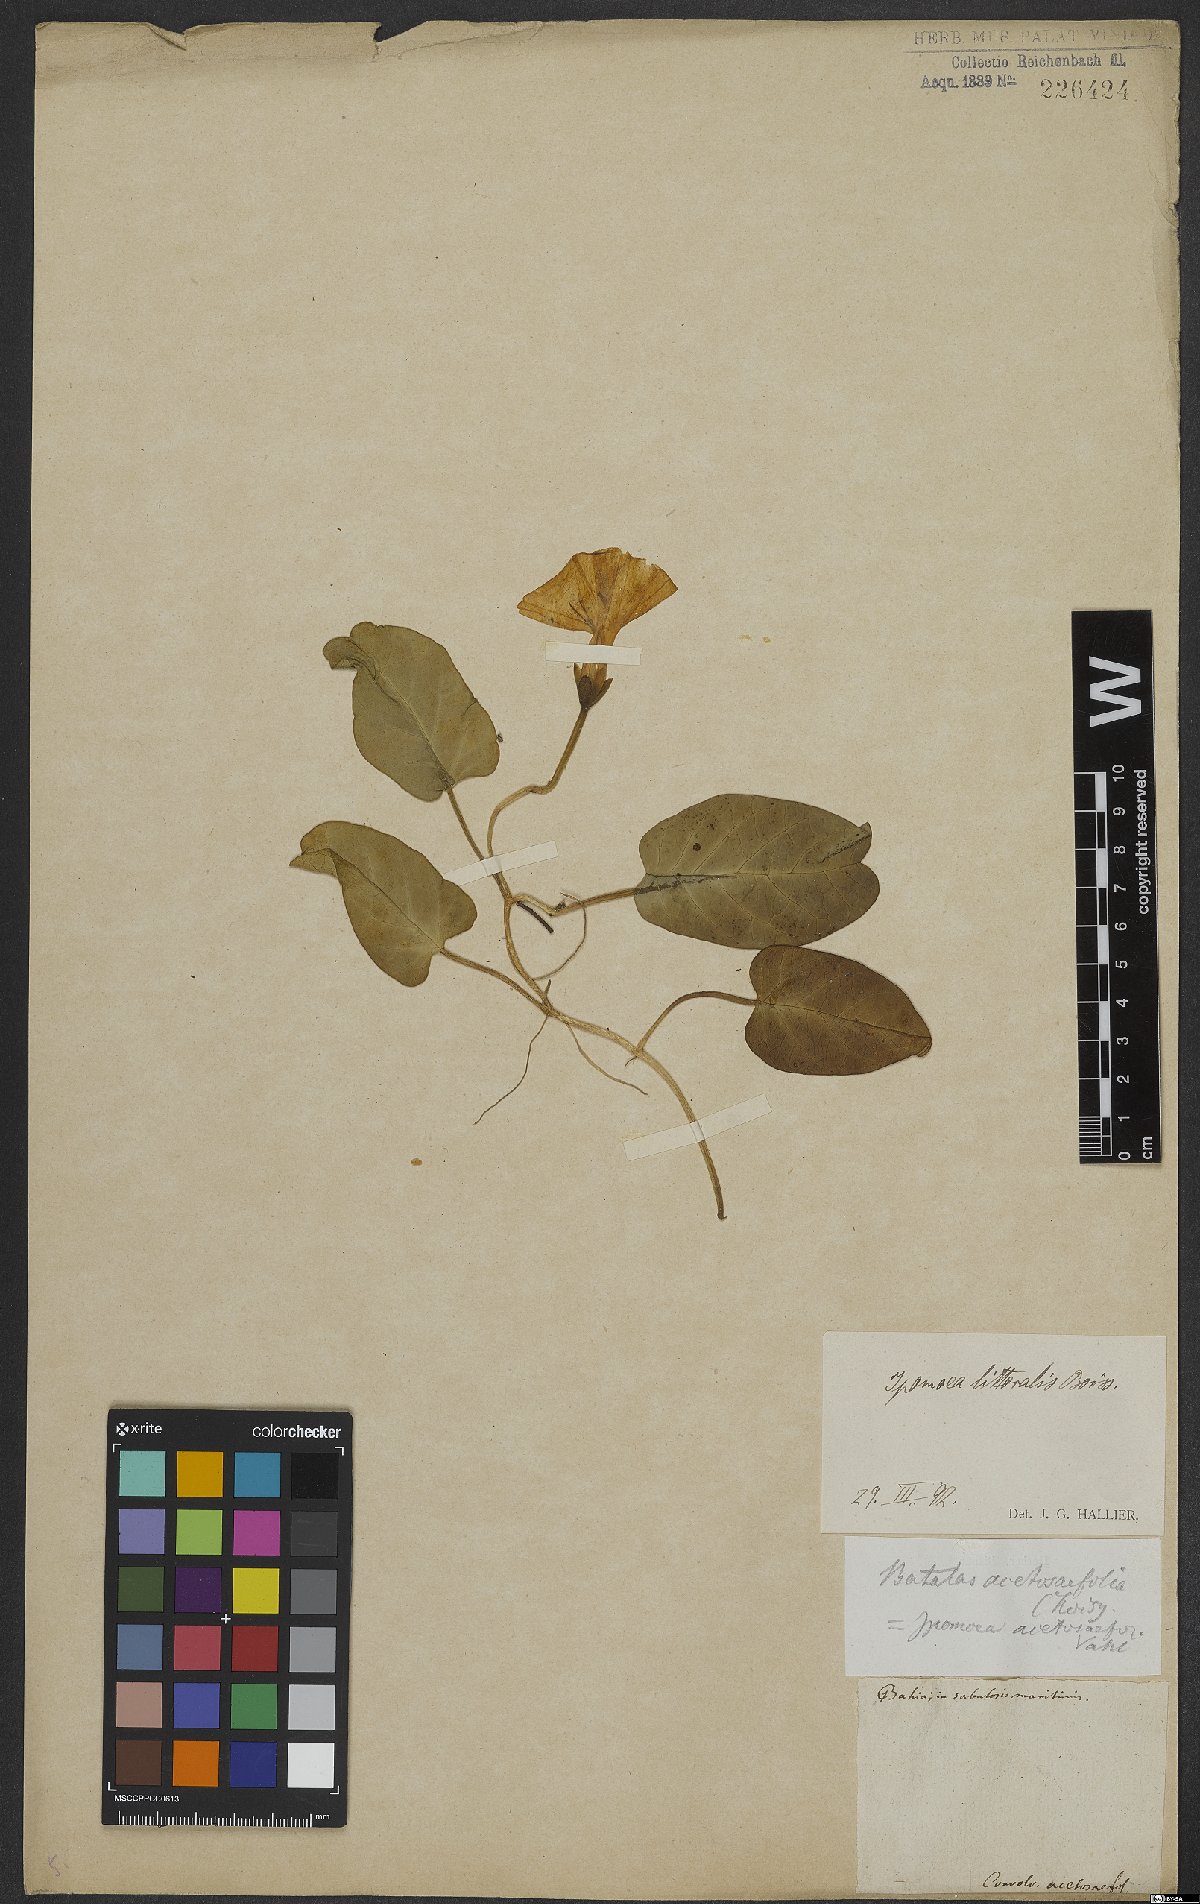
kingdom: Plantae
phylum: Tracheophyta
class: Magnoliopsida
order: Solanales
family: Convolvulaceae
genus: Ipomoea
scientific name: Ipomoea imperati
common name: Fiddle-leaf morning-glory
